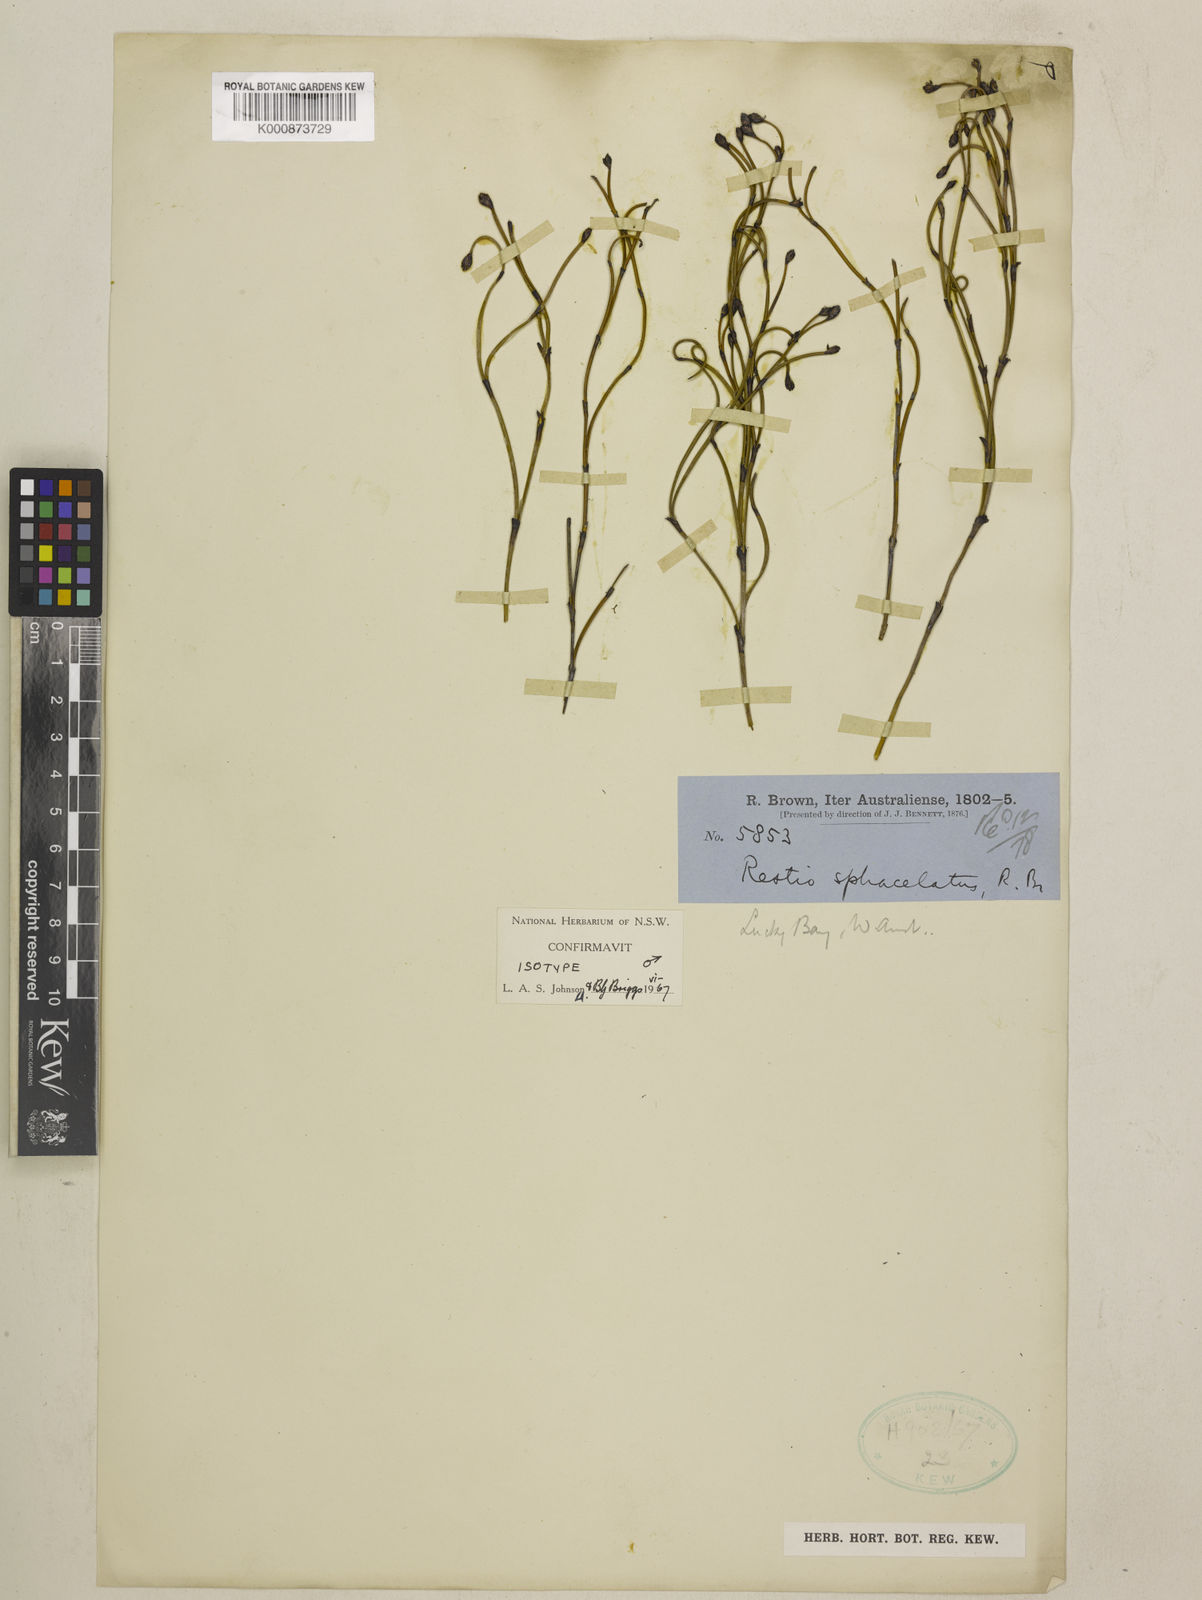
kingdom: Plantae
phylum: Tracheophyta
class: Liliopsida
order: Poales
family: Restionaceae
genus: Chordifex
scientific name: Chordifex sphacelatus
